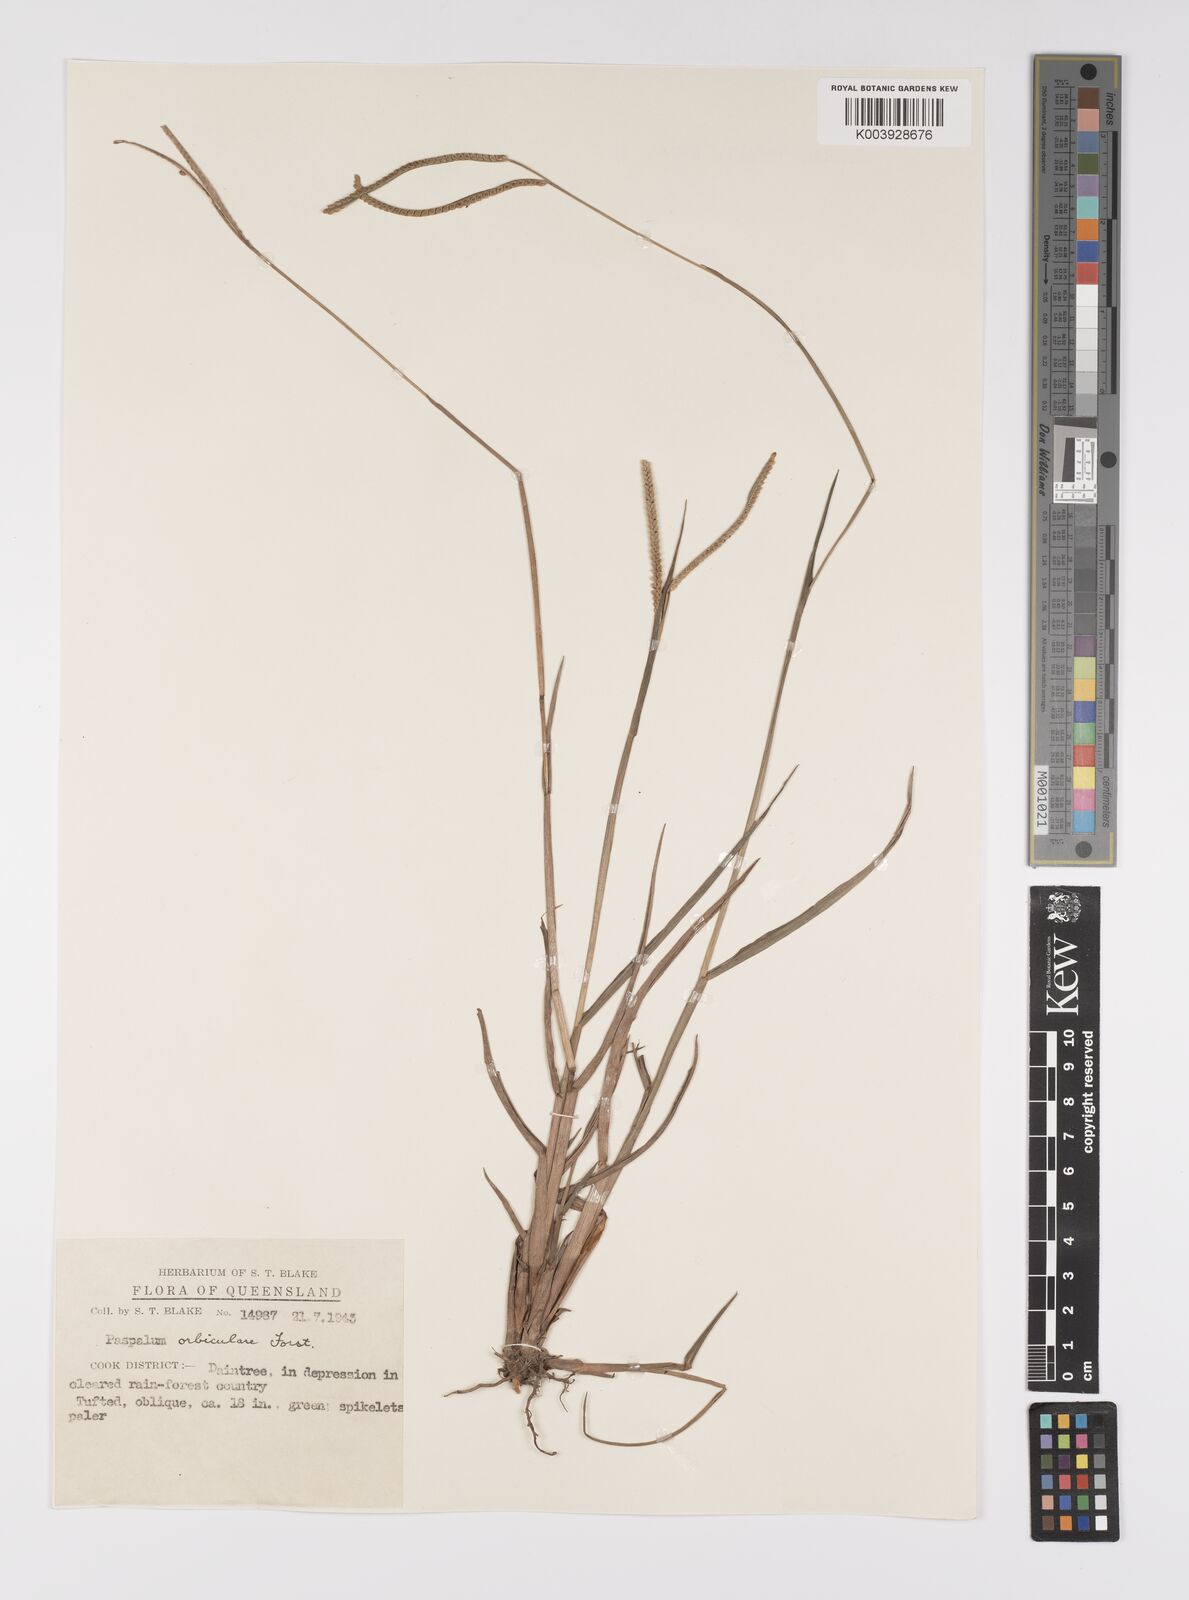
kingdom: Plantae
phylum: Tracheophyta
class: Liliopsida
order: Poales
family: Poaceae
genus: Paspalum
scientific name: Paspalum scrobiculatum
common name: Kodo millet
